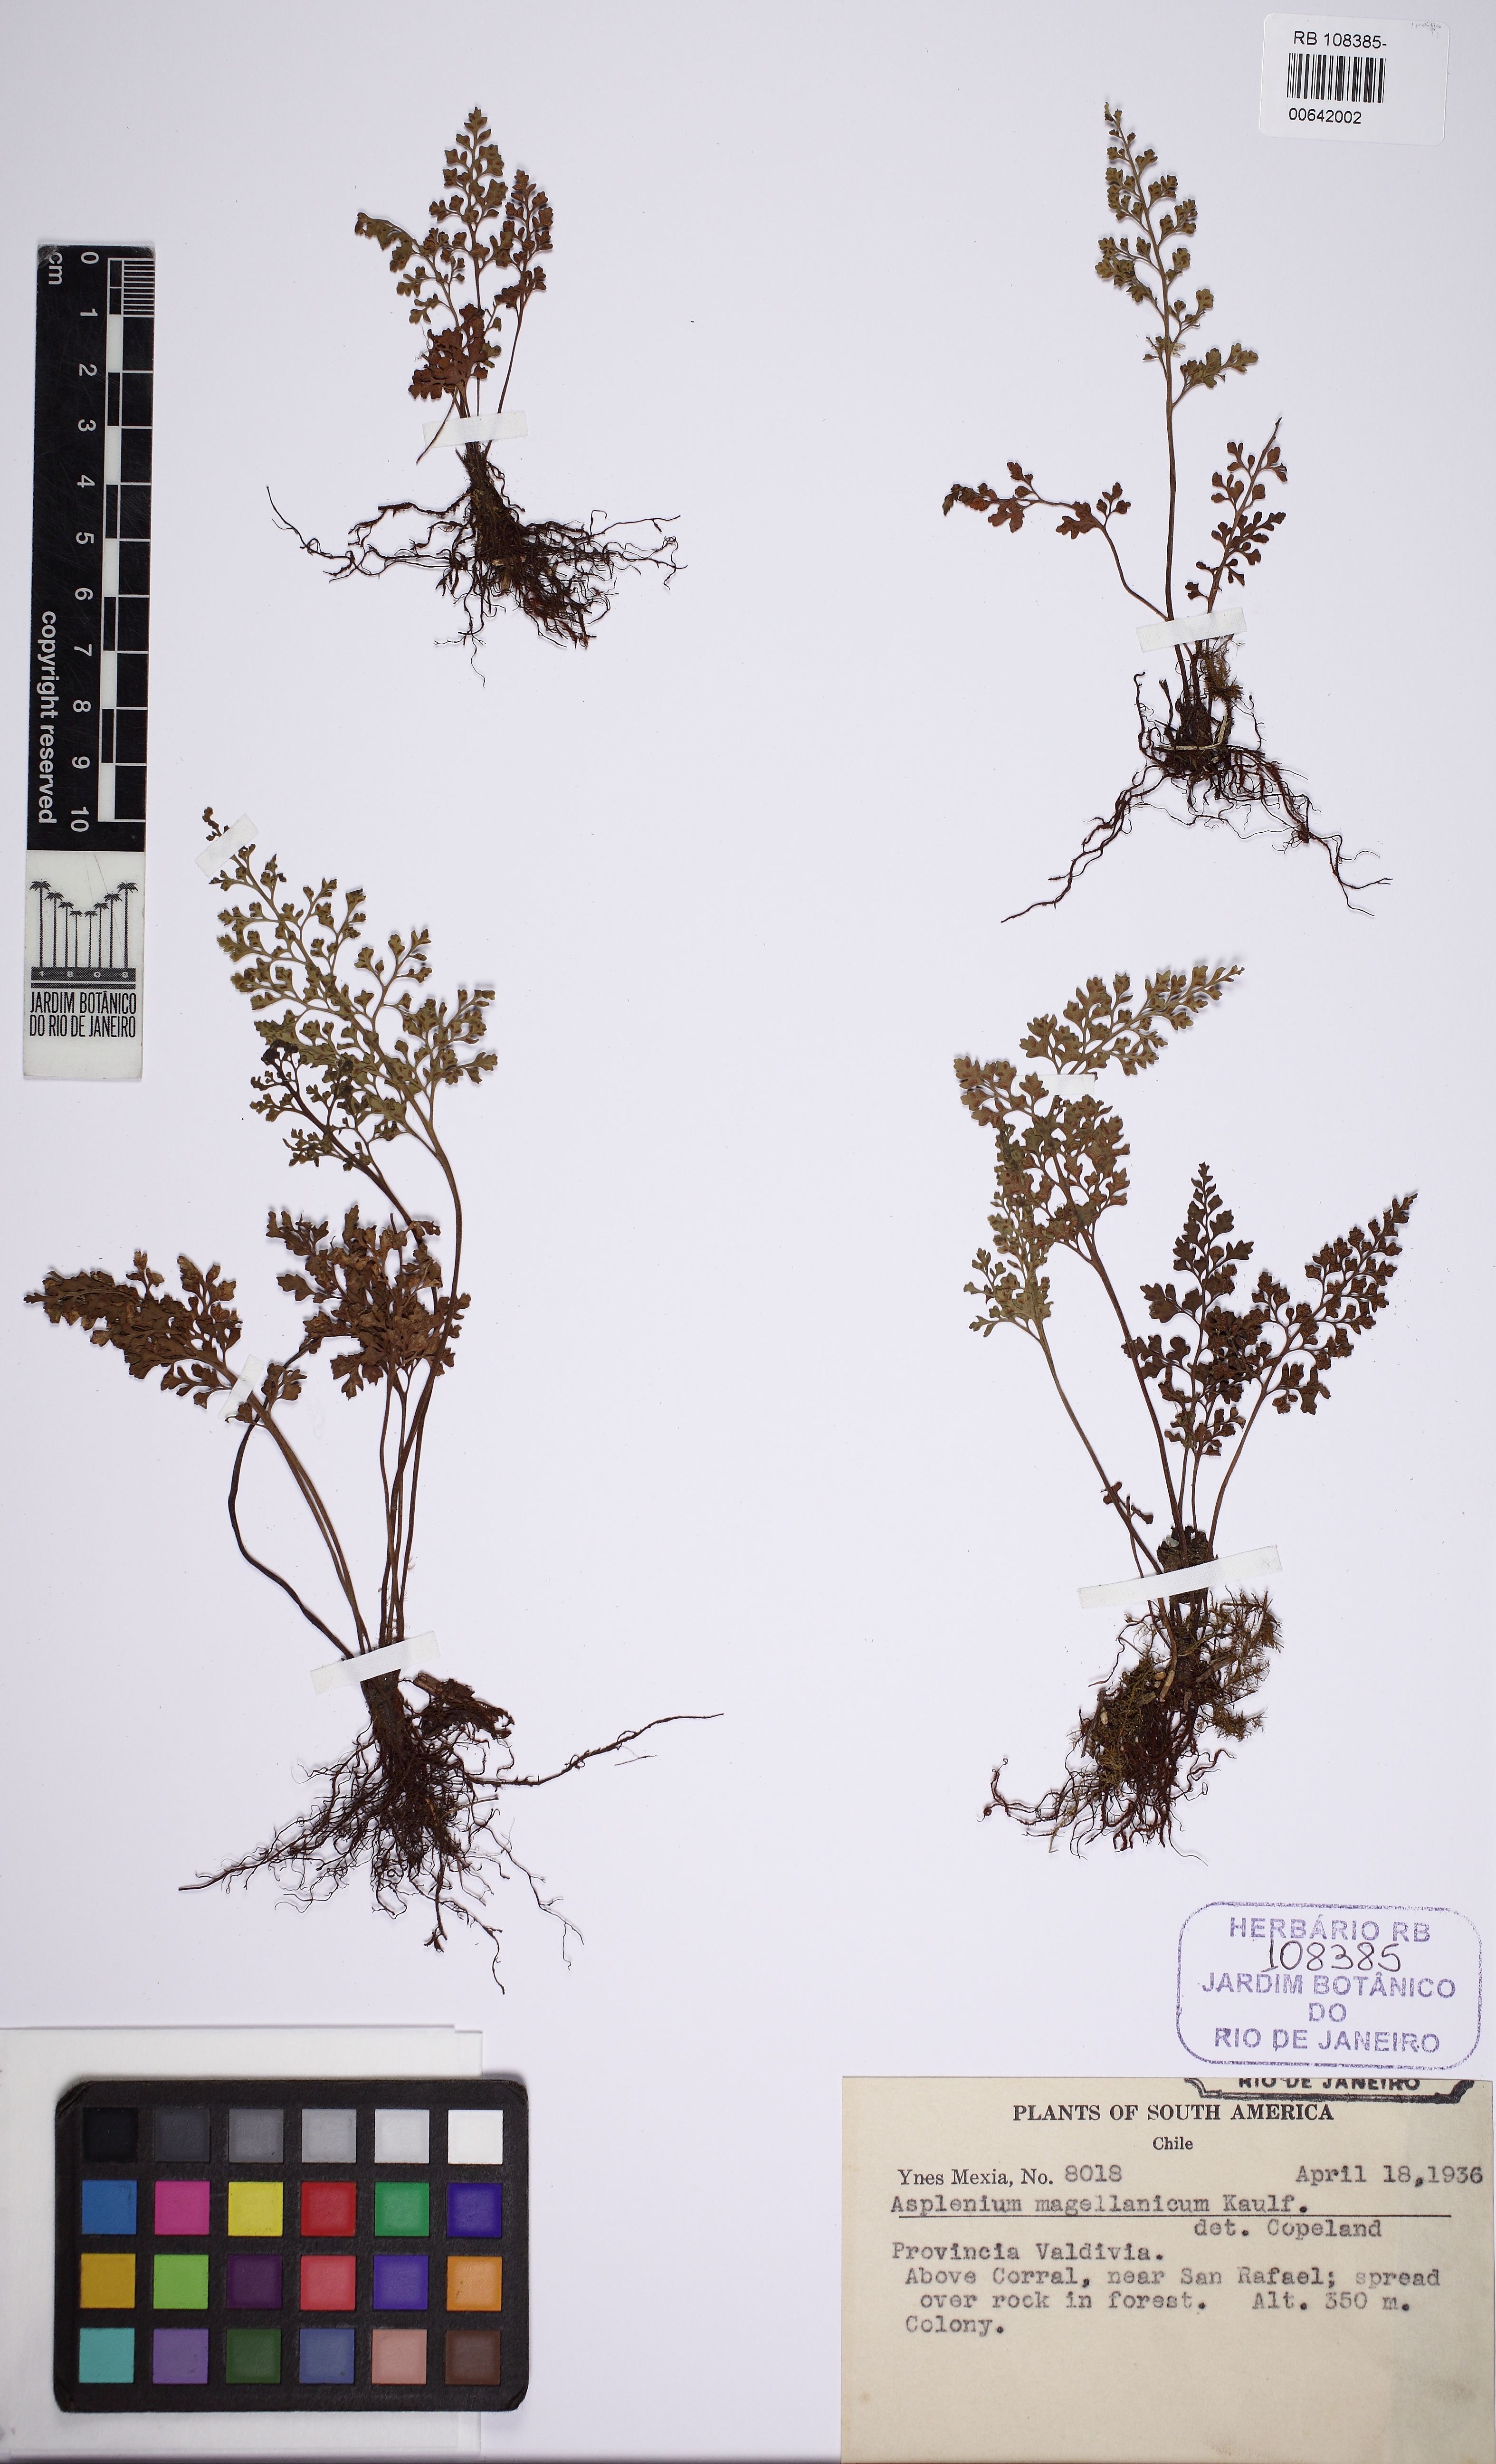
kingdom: Plantae
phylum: Tracheophyta
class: Polypodiopsida
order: Polypodiales
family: Aspleniaceae
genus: Asplenium
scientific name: Asplenium dareoides
